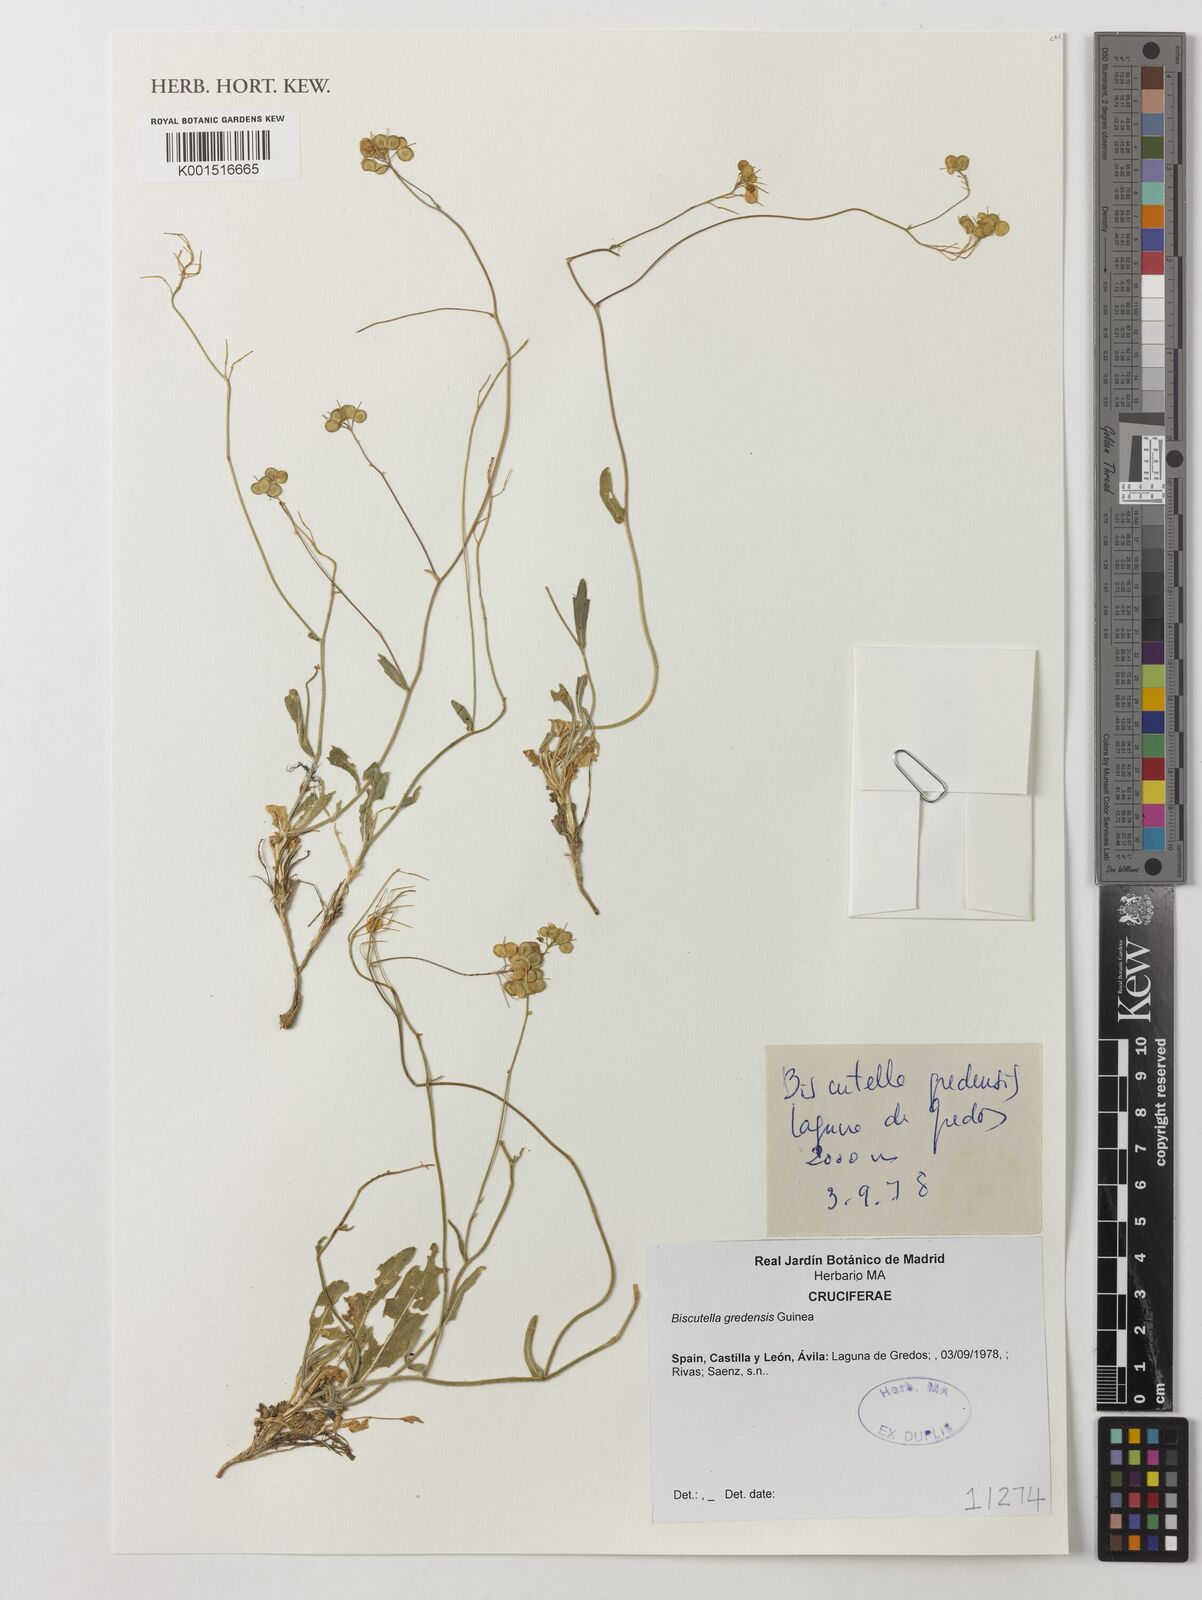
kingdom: Plantae
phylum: Tracheophyta
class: Magnoliopsida
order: Brassicales
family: Brassicaceae
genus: Biscutella
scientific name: Biscutella gredensis
